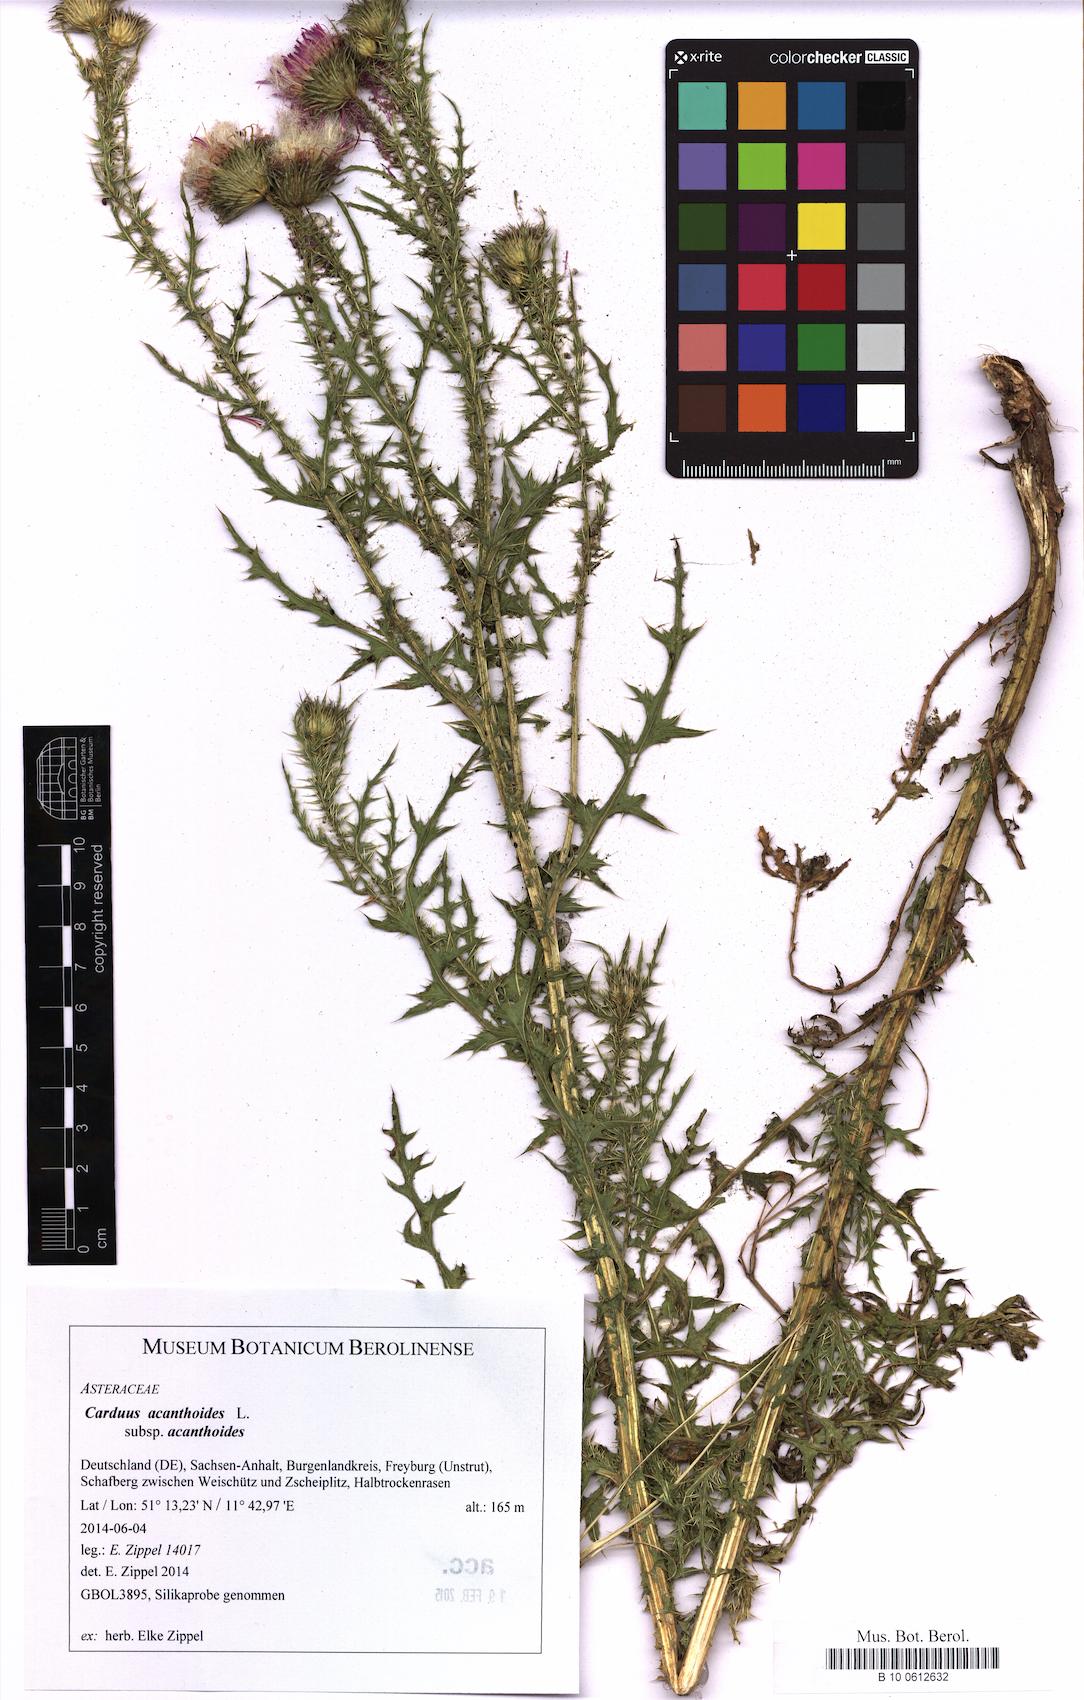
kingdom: Plantae
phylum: Tracheophyta
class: Magnoliopsida
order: Asterales
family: Asteraceae
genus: Carduus
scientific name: Carduus acanthoides
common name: Plumeless thistle
